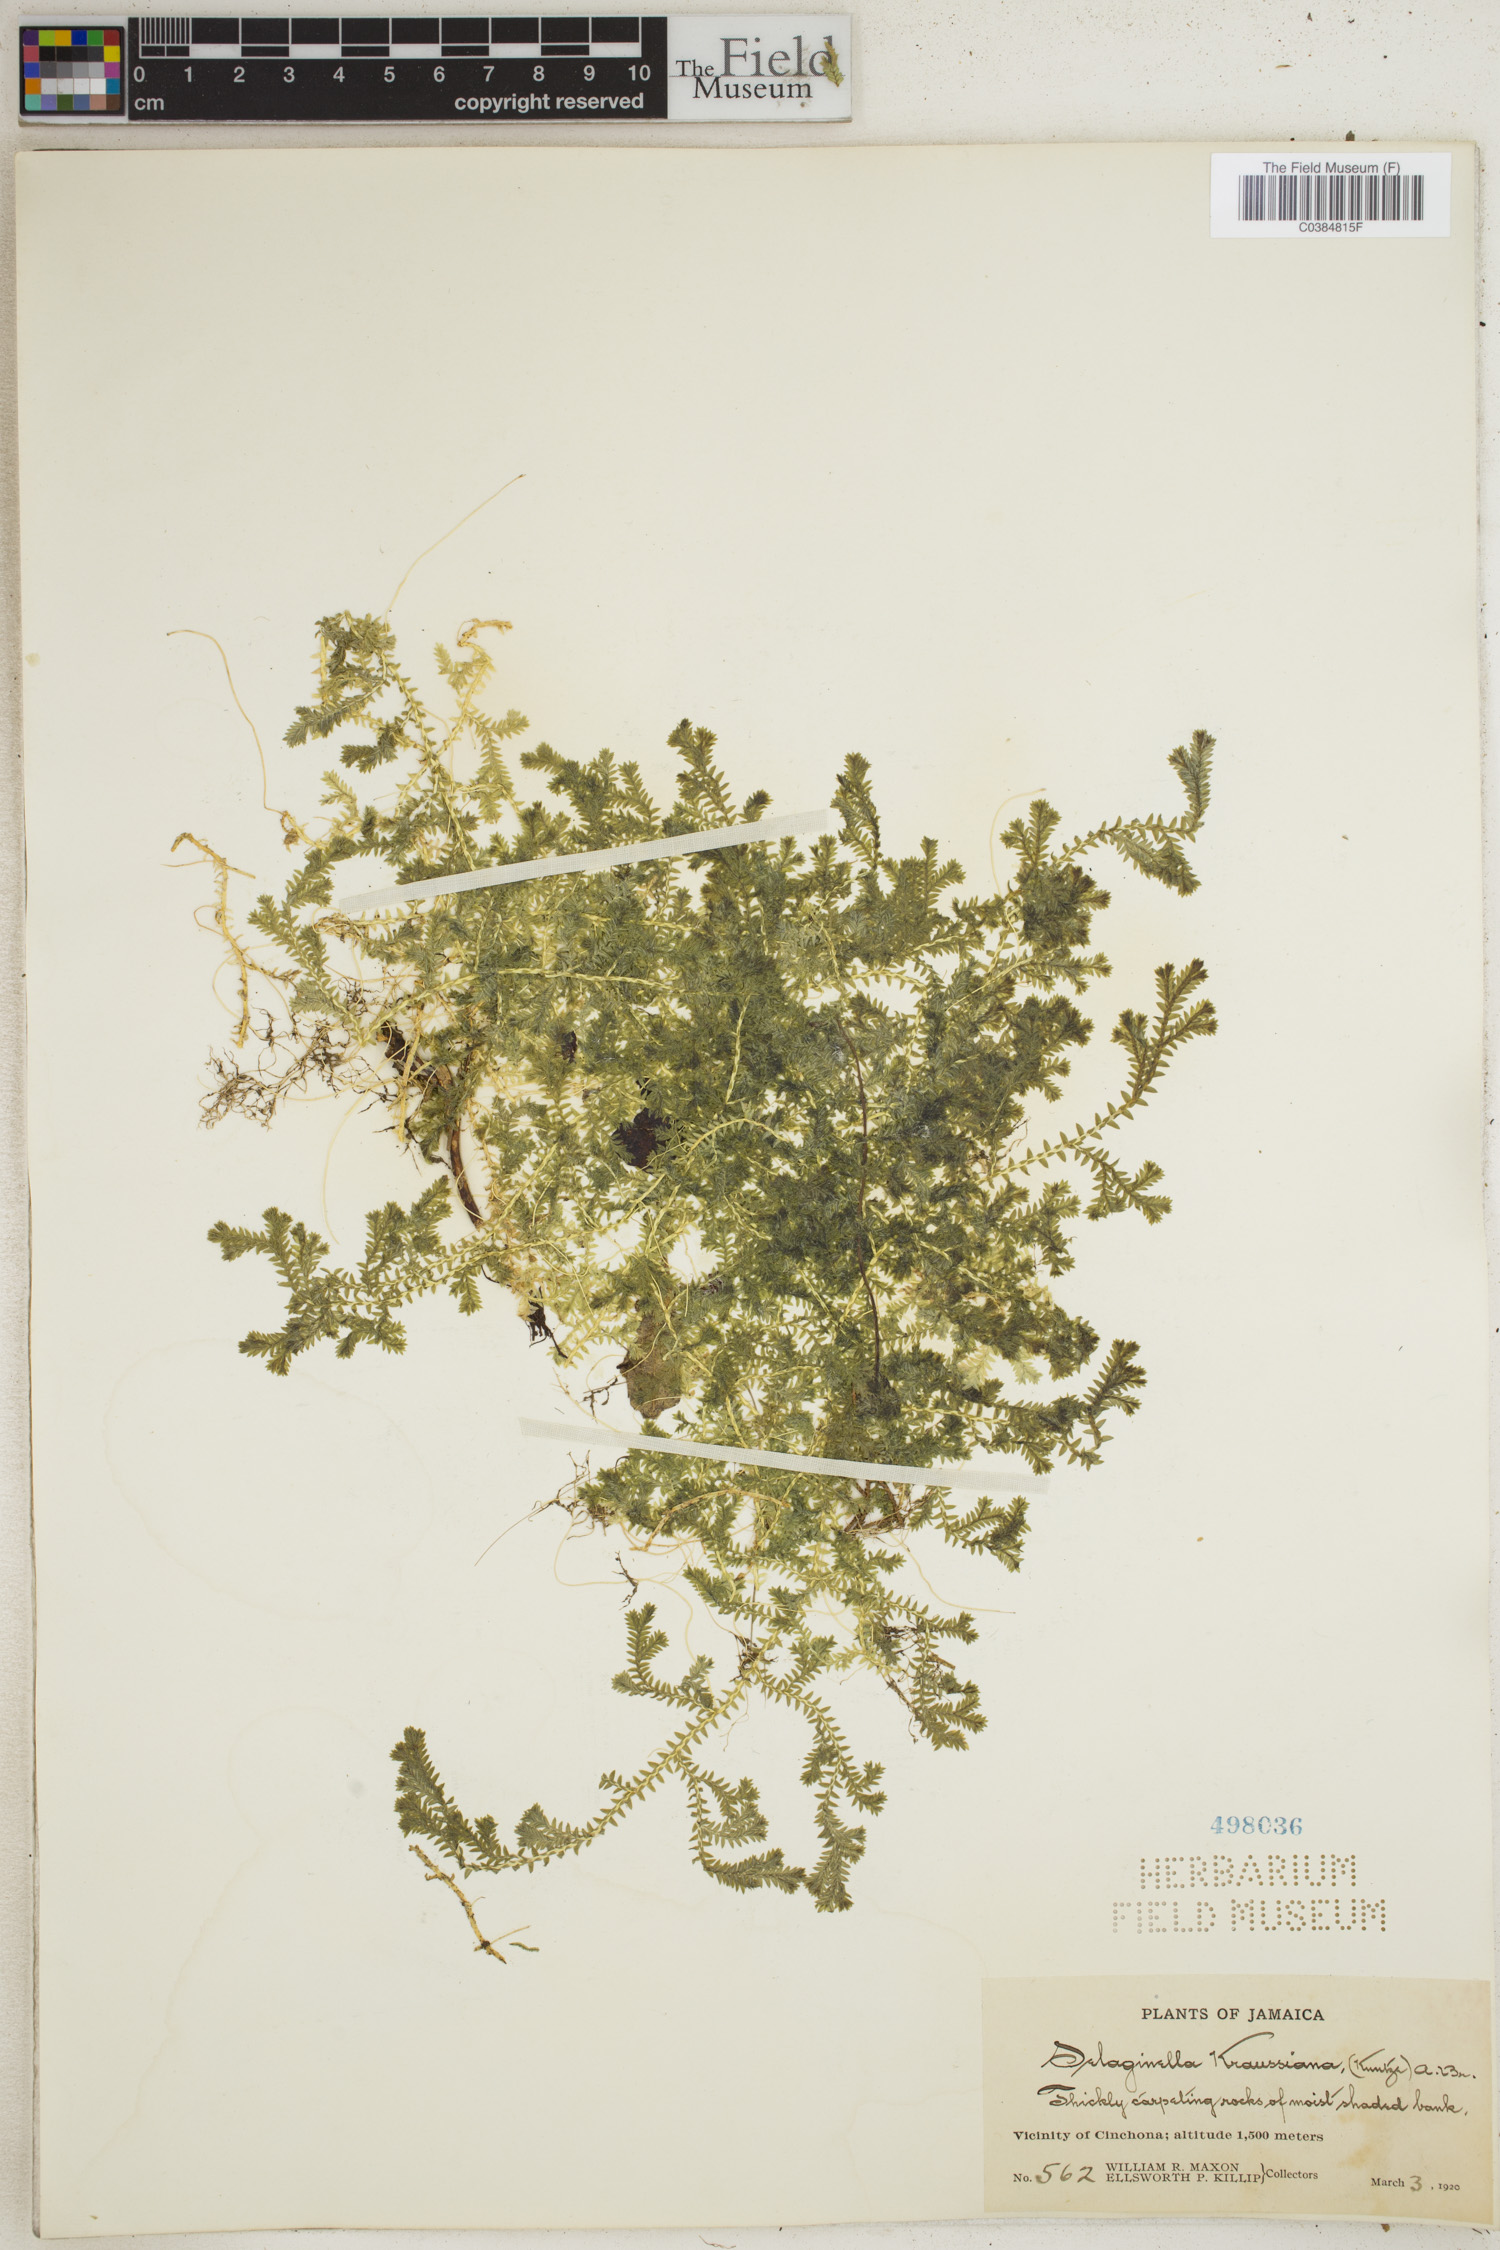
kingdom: Plantae
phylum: Tracheophyta
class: Lycopodiopsida
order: Selaginellales
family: Selaginellaceae
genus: Selaginella
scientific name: Selaginella kraussiana
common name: Krauss' spikemoss
